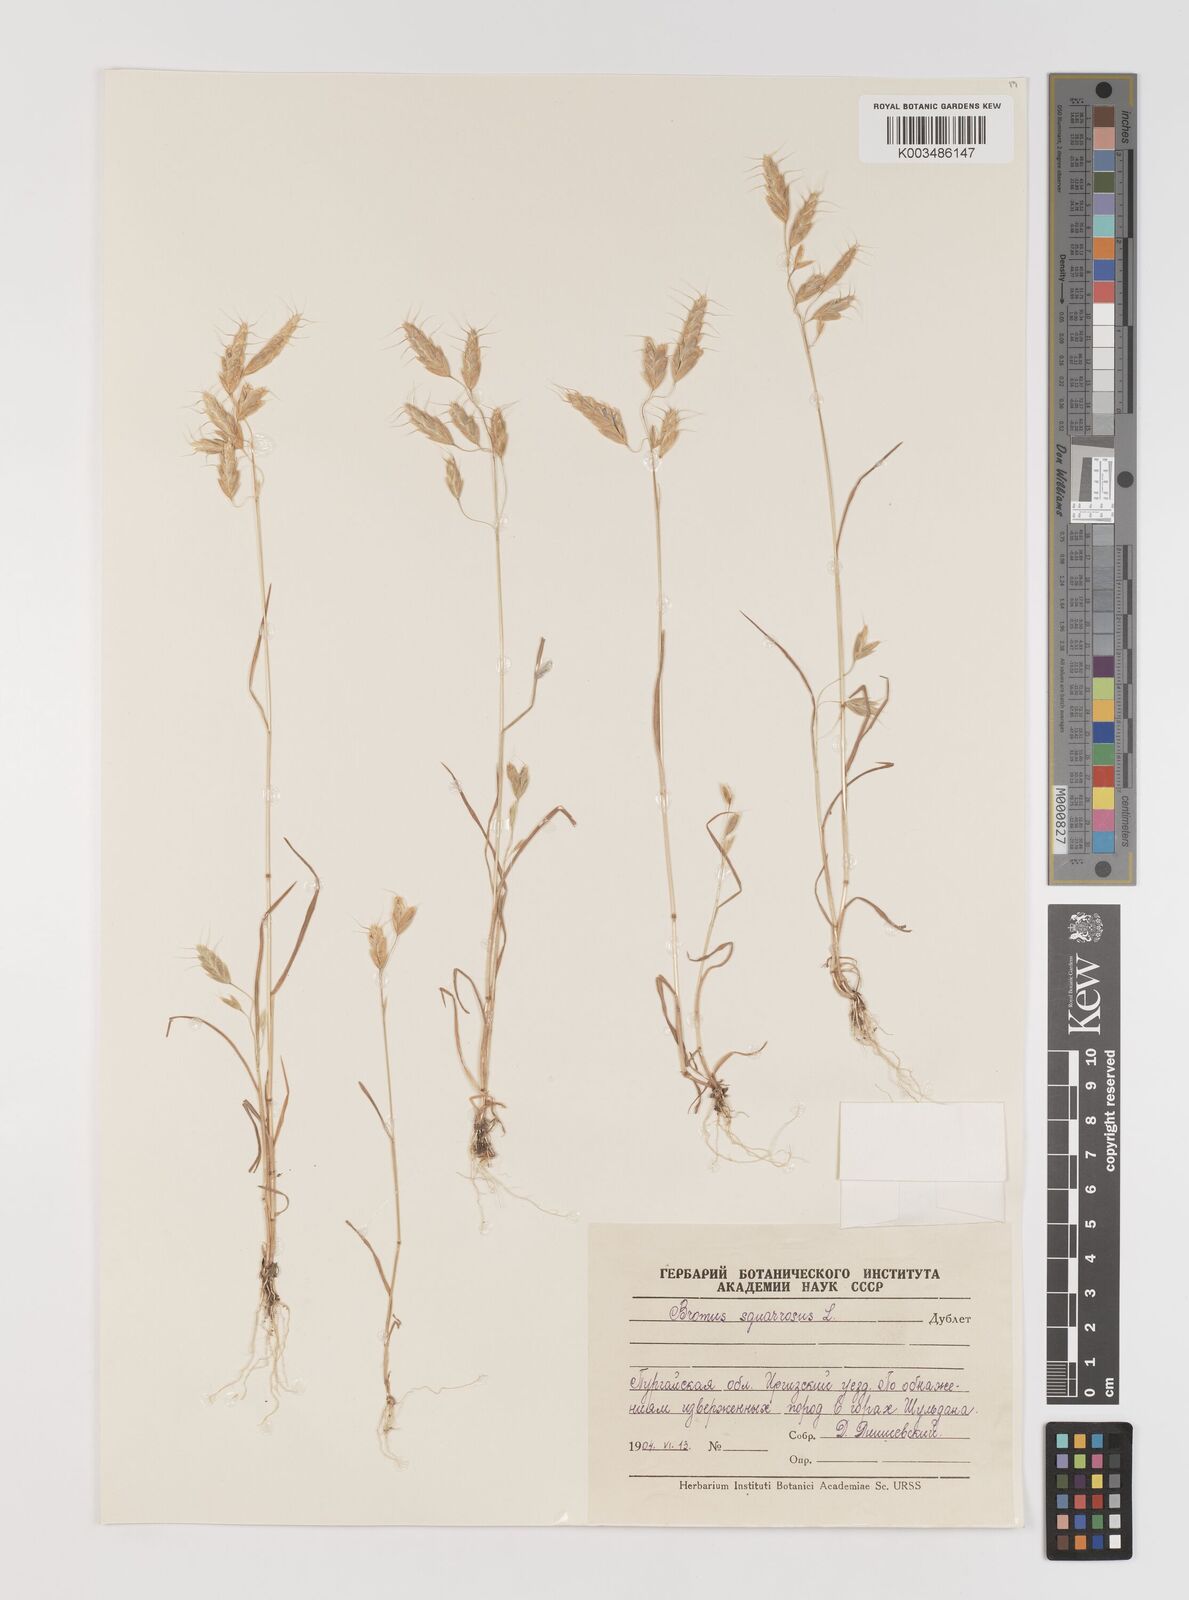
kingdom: Plantae
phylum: Tracheophyta
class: Liliopsida
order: Poales
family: Poaceae
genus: Bromus
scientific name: Bromus squarrosus
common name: Corn brome
